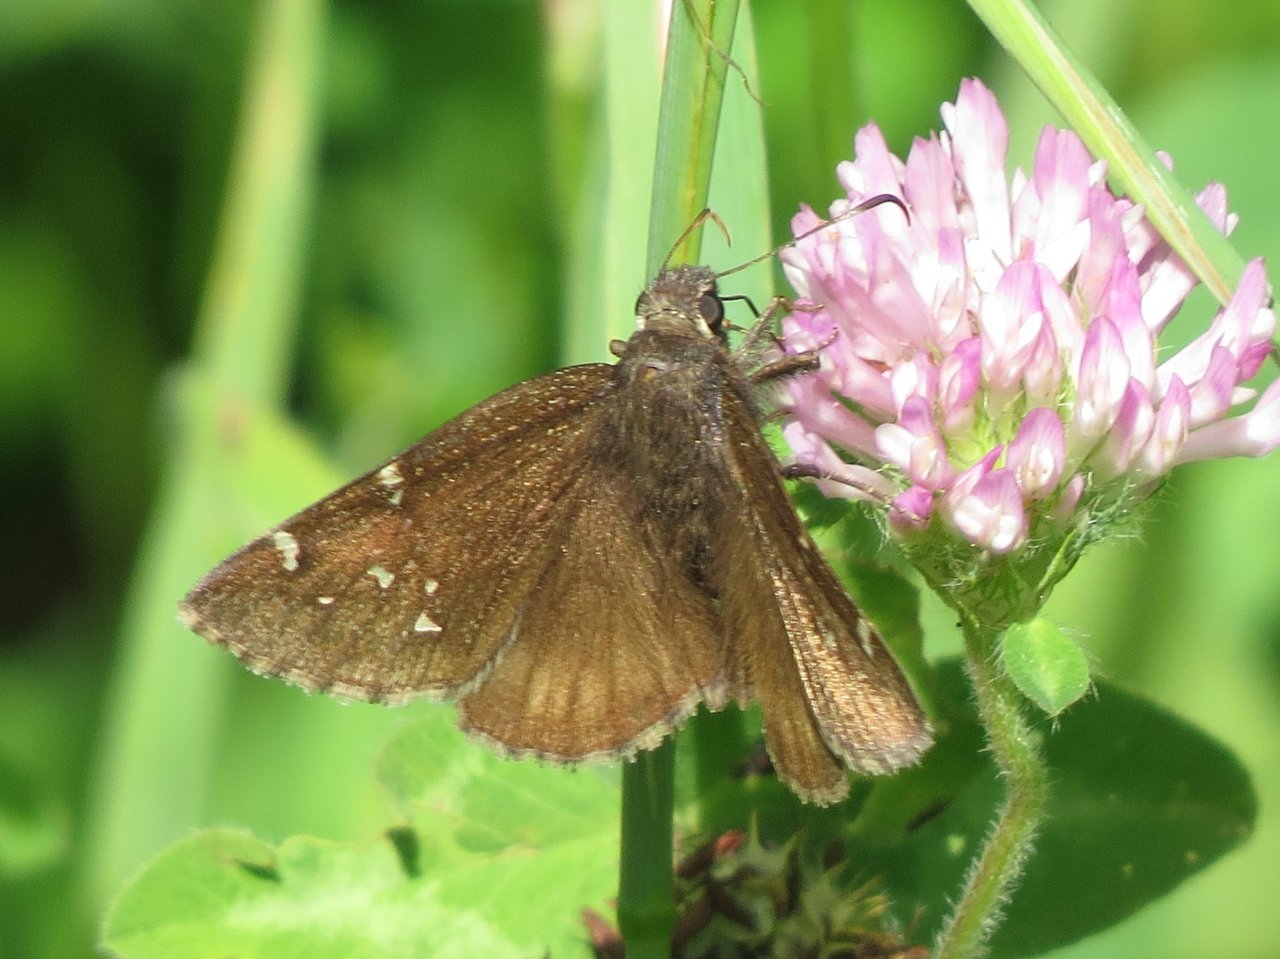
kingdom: Animalia
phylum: Arthropoda
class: Insecta
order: Lepidoptera
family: Hesperiidae
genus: Autochton
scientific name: Autochton
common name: Northern Cloudywing
